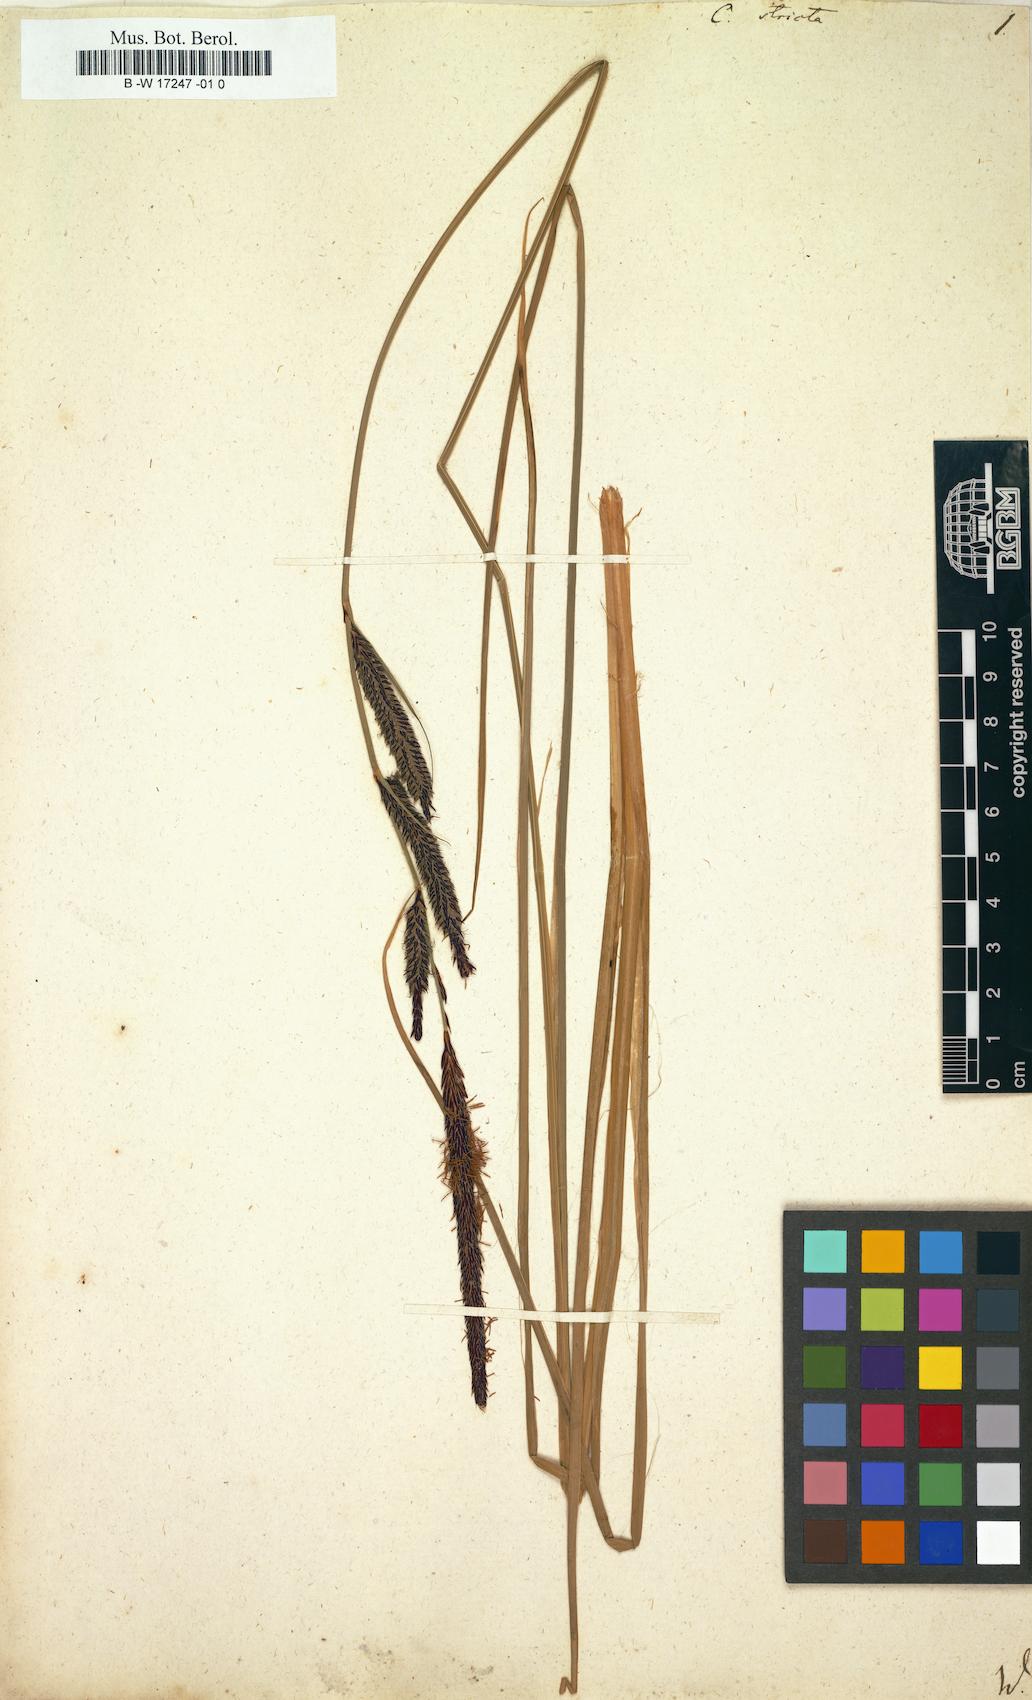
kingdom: Plantae
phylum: Tracheophyta
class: Liliopsida
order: Poales
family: Cyperaceae
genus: Carex
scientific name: Carex stricta
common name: Hummock sedge
